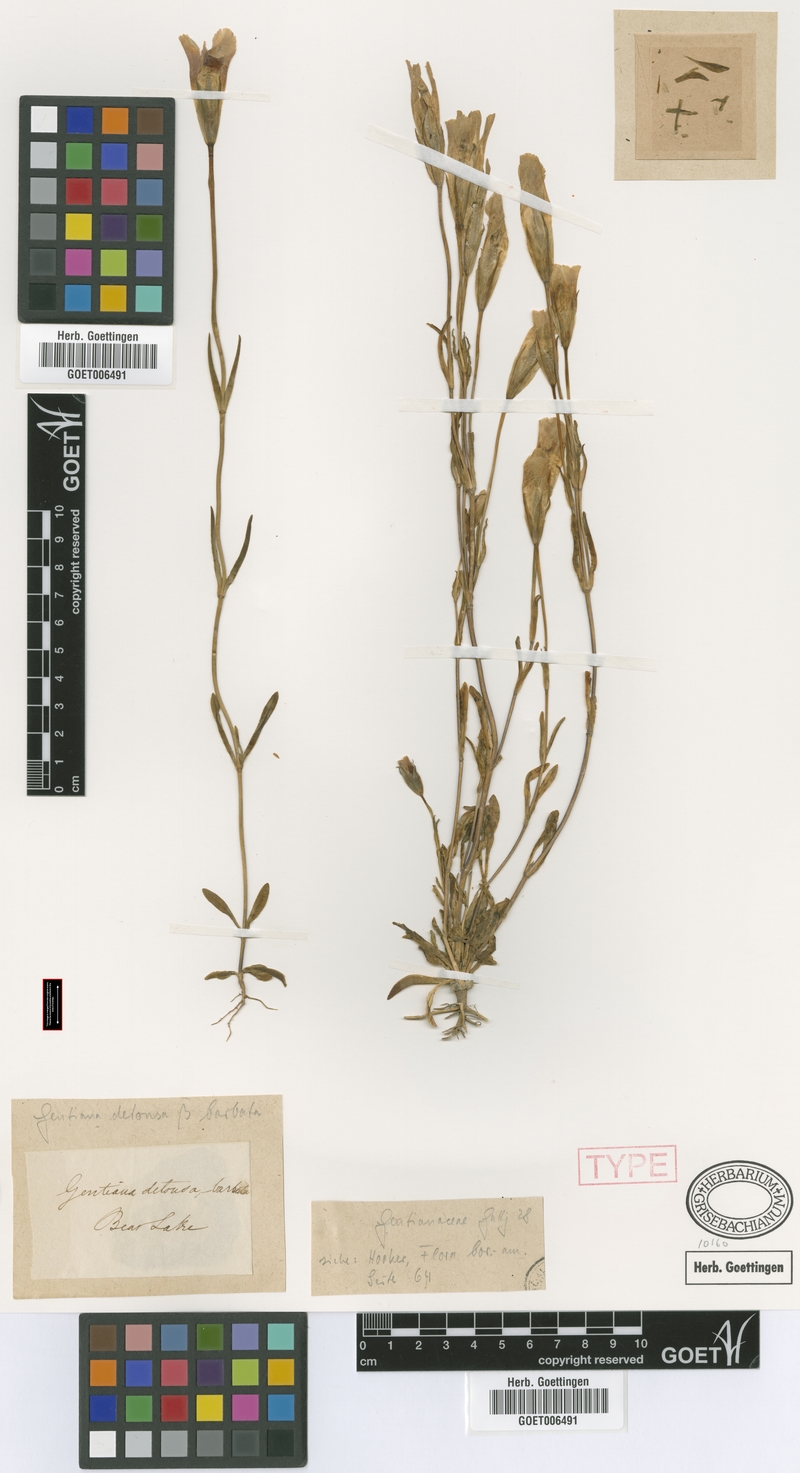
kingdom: Plantae
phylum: Tracheophyta
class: Magnoliopsida
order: Gentianales
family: Gentianaceae
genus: Gentianopsis
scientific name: Gentianopsis barbata
